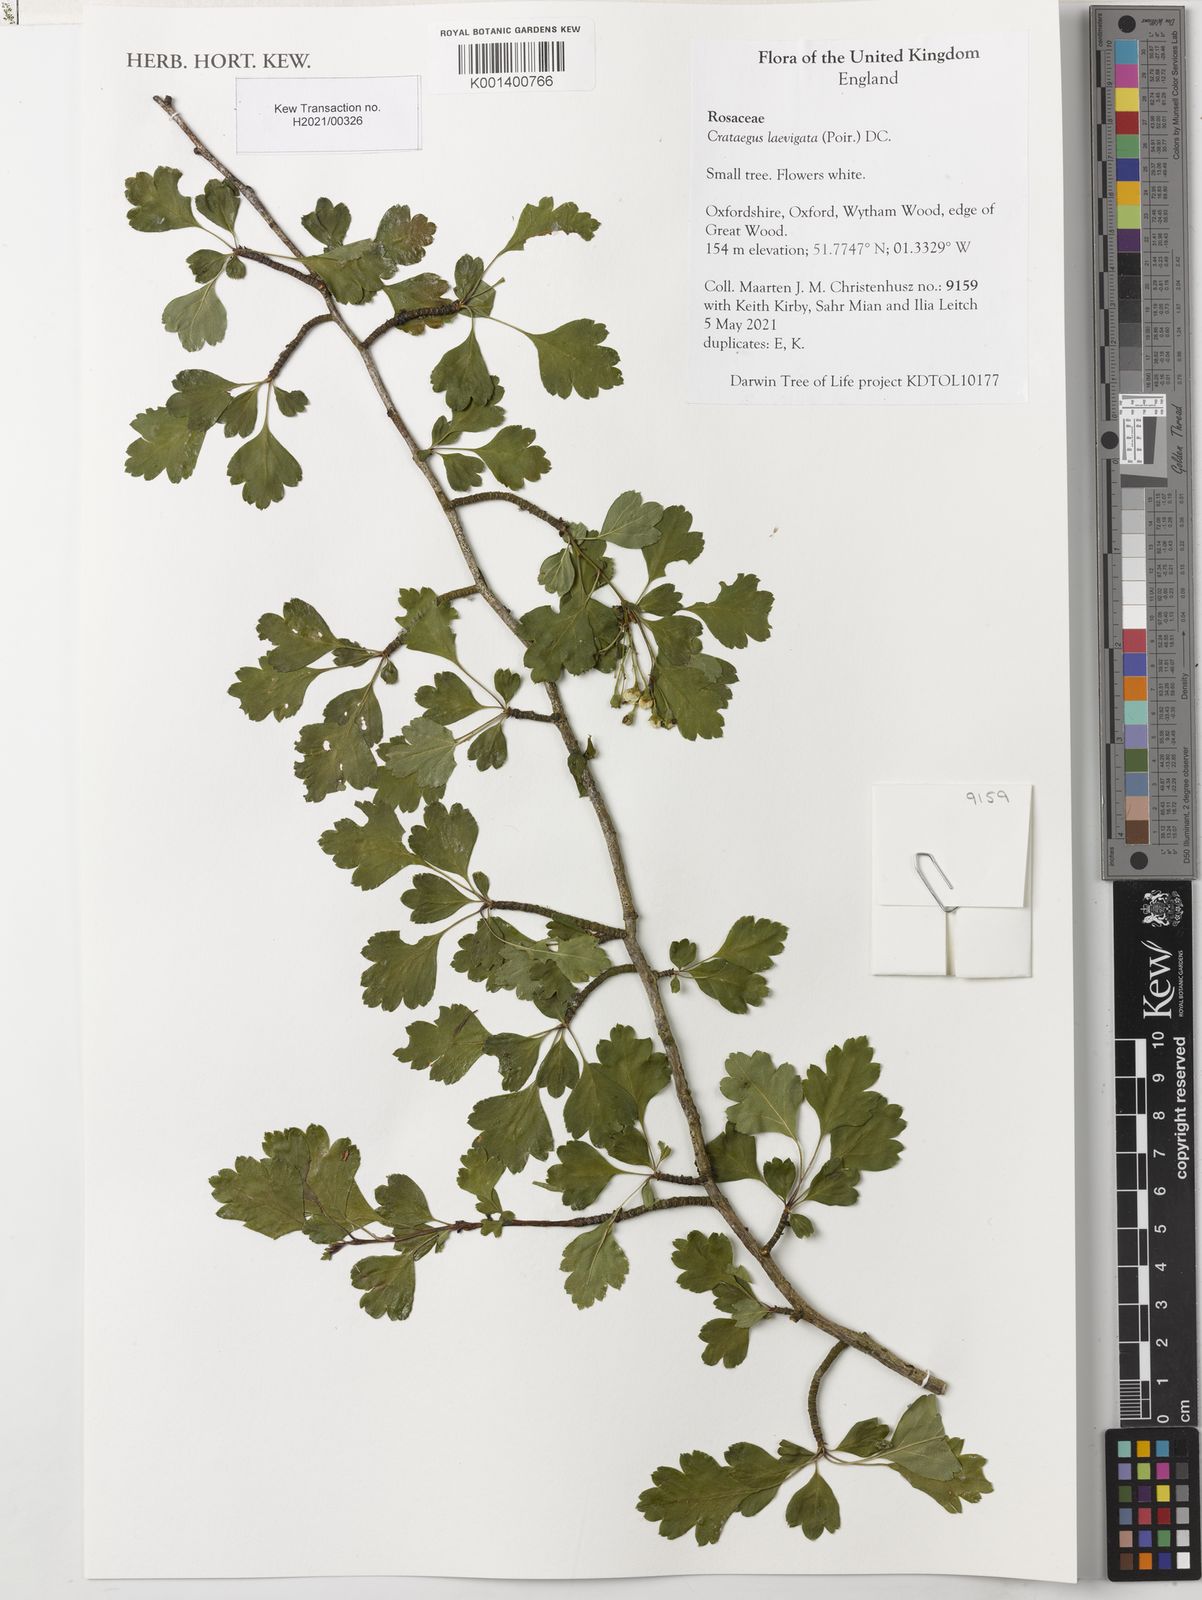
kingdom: Plantae
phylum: Tracheophyta
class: Magnoliopsida
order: Rosales
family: Rosaceae
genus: Crataegus
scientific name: Crataegus laevigata
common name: Midland hawthorn
